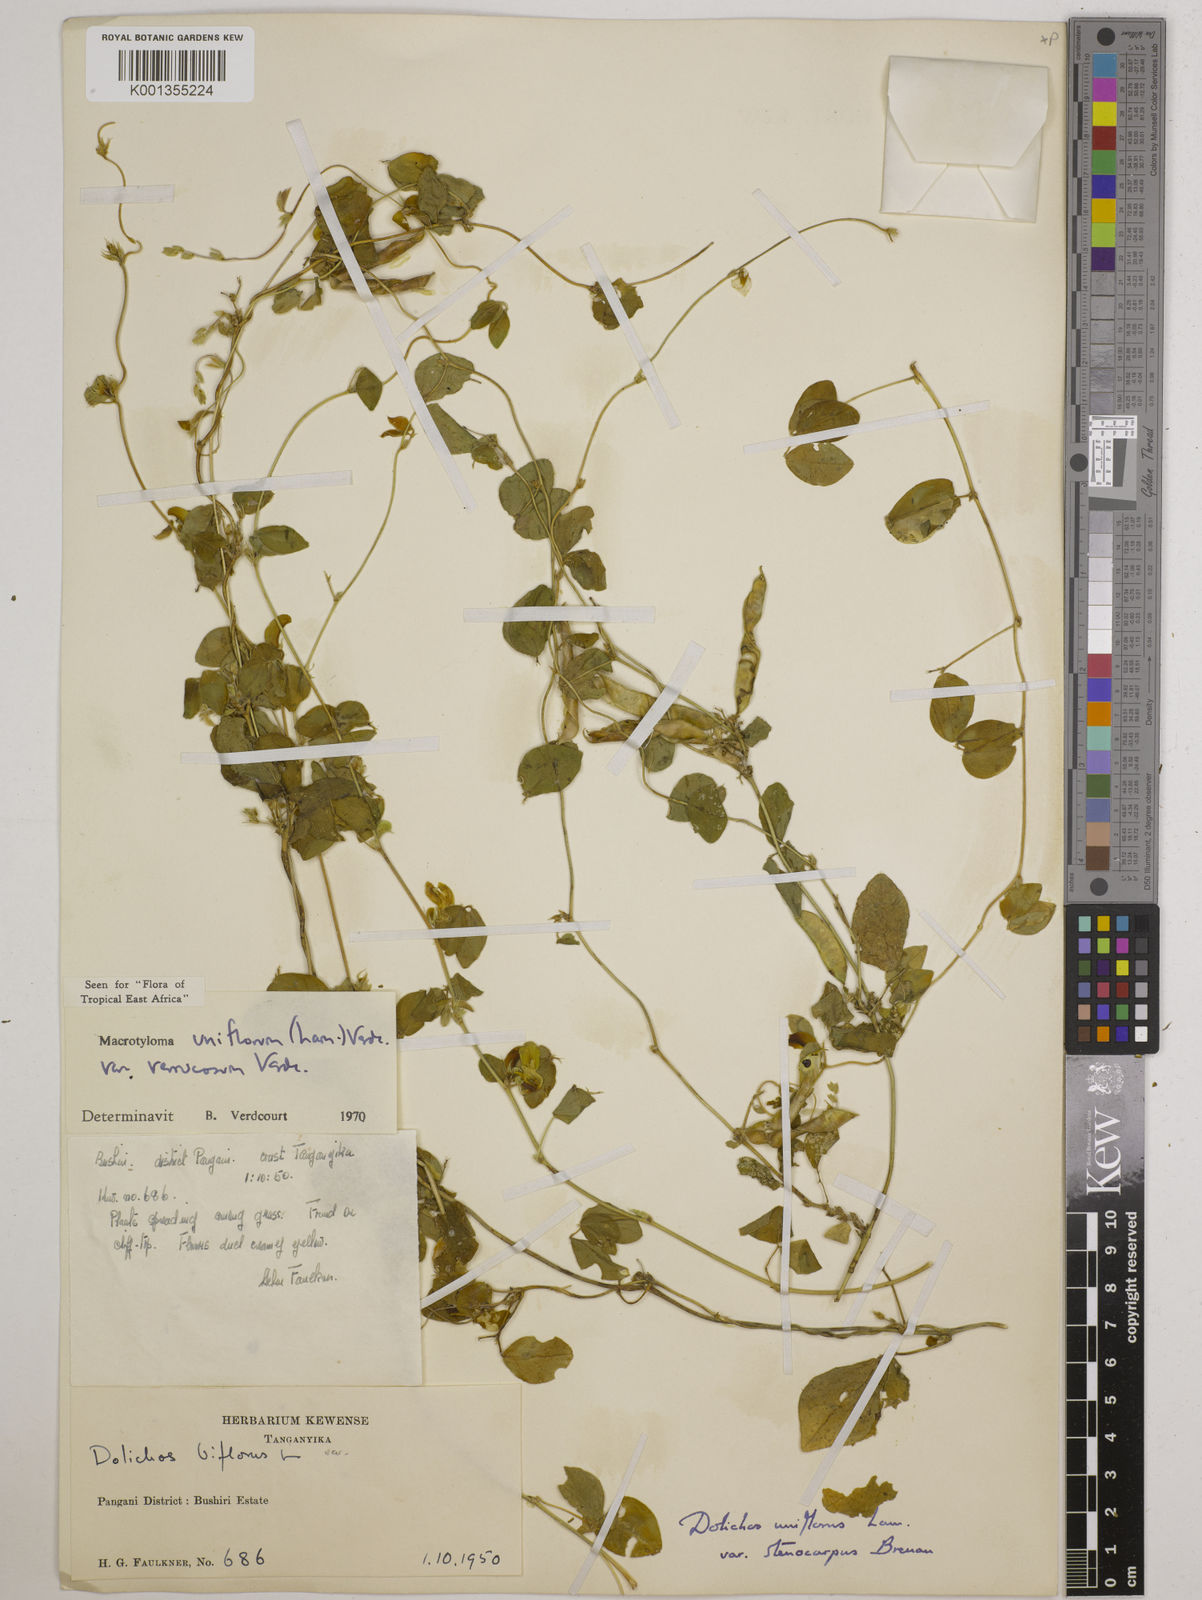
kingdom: Plantae
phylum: Tracheophyta
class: Magnoliopsida
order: Fabales
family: Fabaceae
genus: Macrotyloma
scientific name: Macrotyloma
